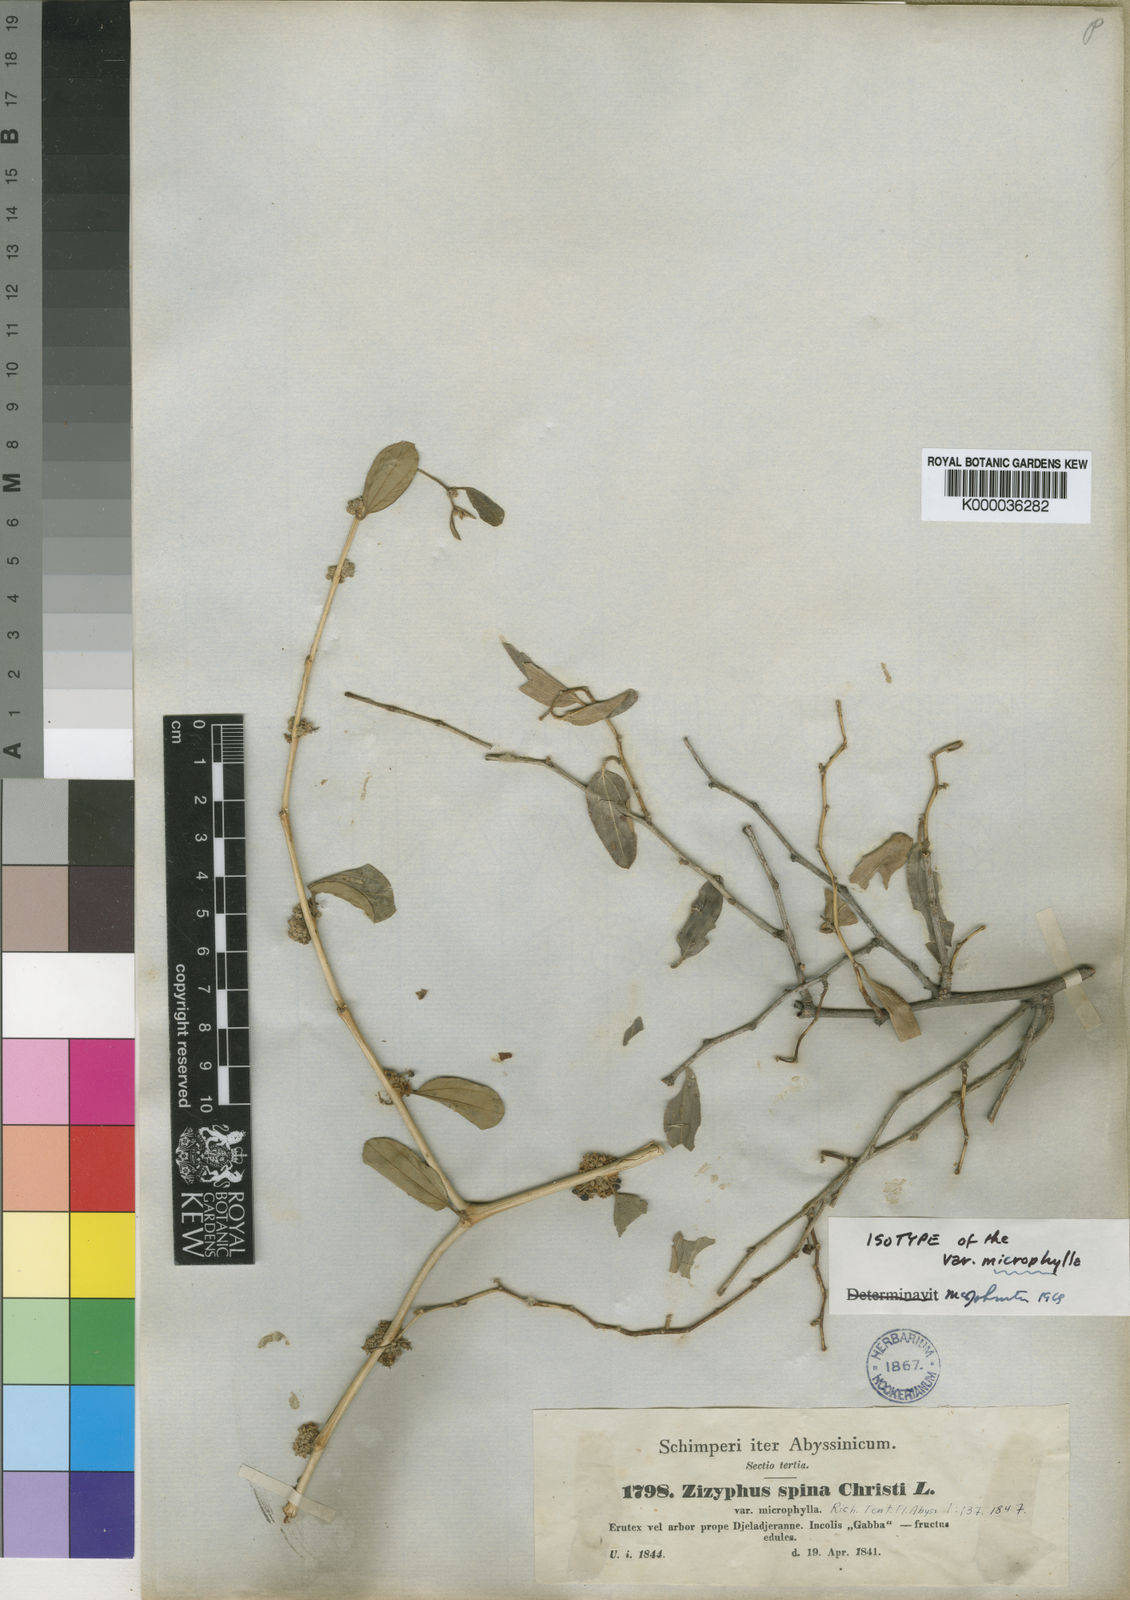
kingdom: Plantae
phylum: Tracheophyta
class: Magnoliopsida
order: Rosales
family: Rhamnaceae
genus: Ziziphus
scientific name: Ziziphus spina-christi
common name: Syrian christ-thorn
